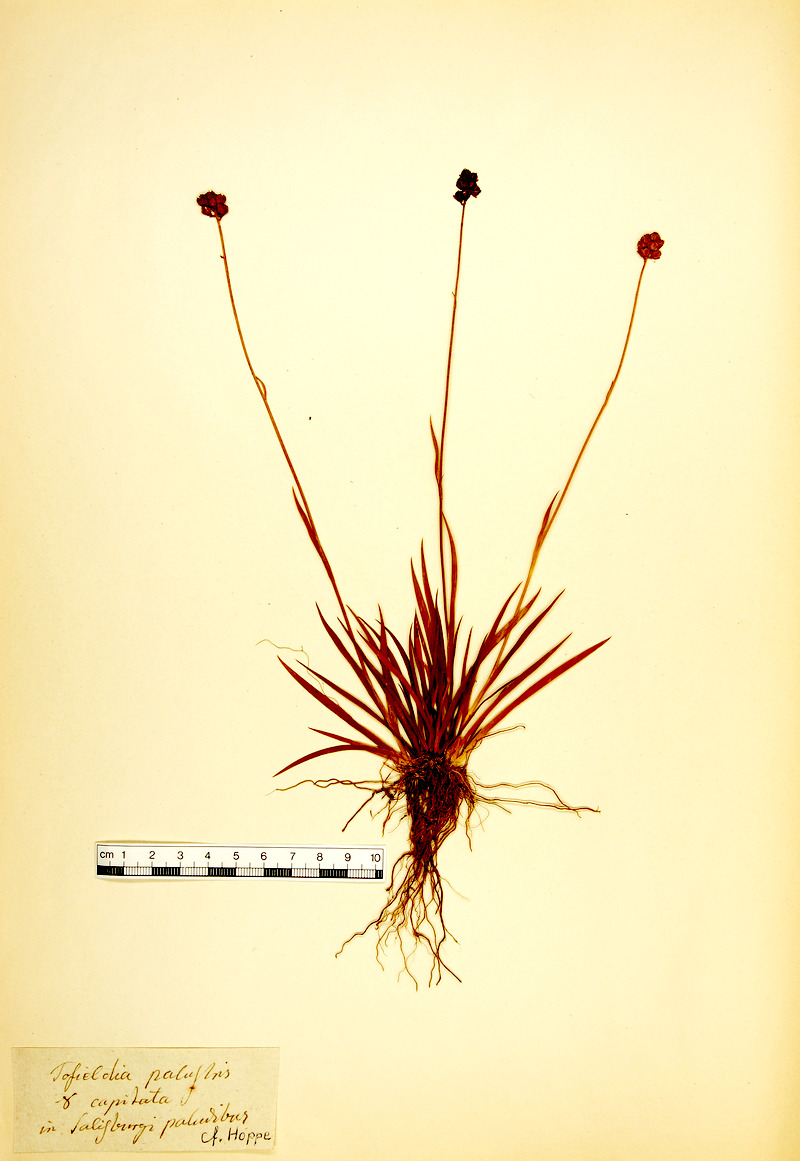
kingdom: Plantae
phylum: Tracheophyta
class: Liliopsida
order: Alismatales
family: Tofieldiaceae
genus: Tofieldia
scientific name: Tofieldia pusilla
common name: Scottish false asphodel
